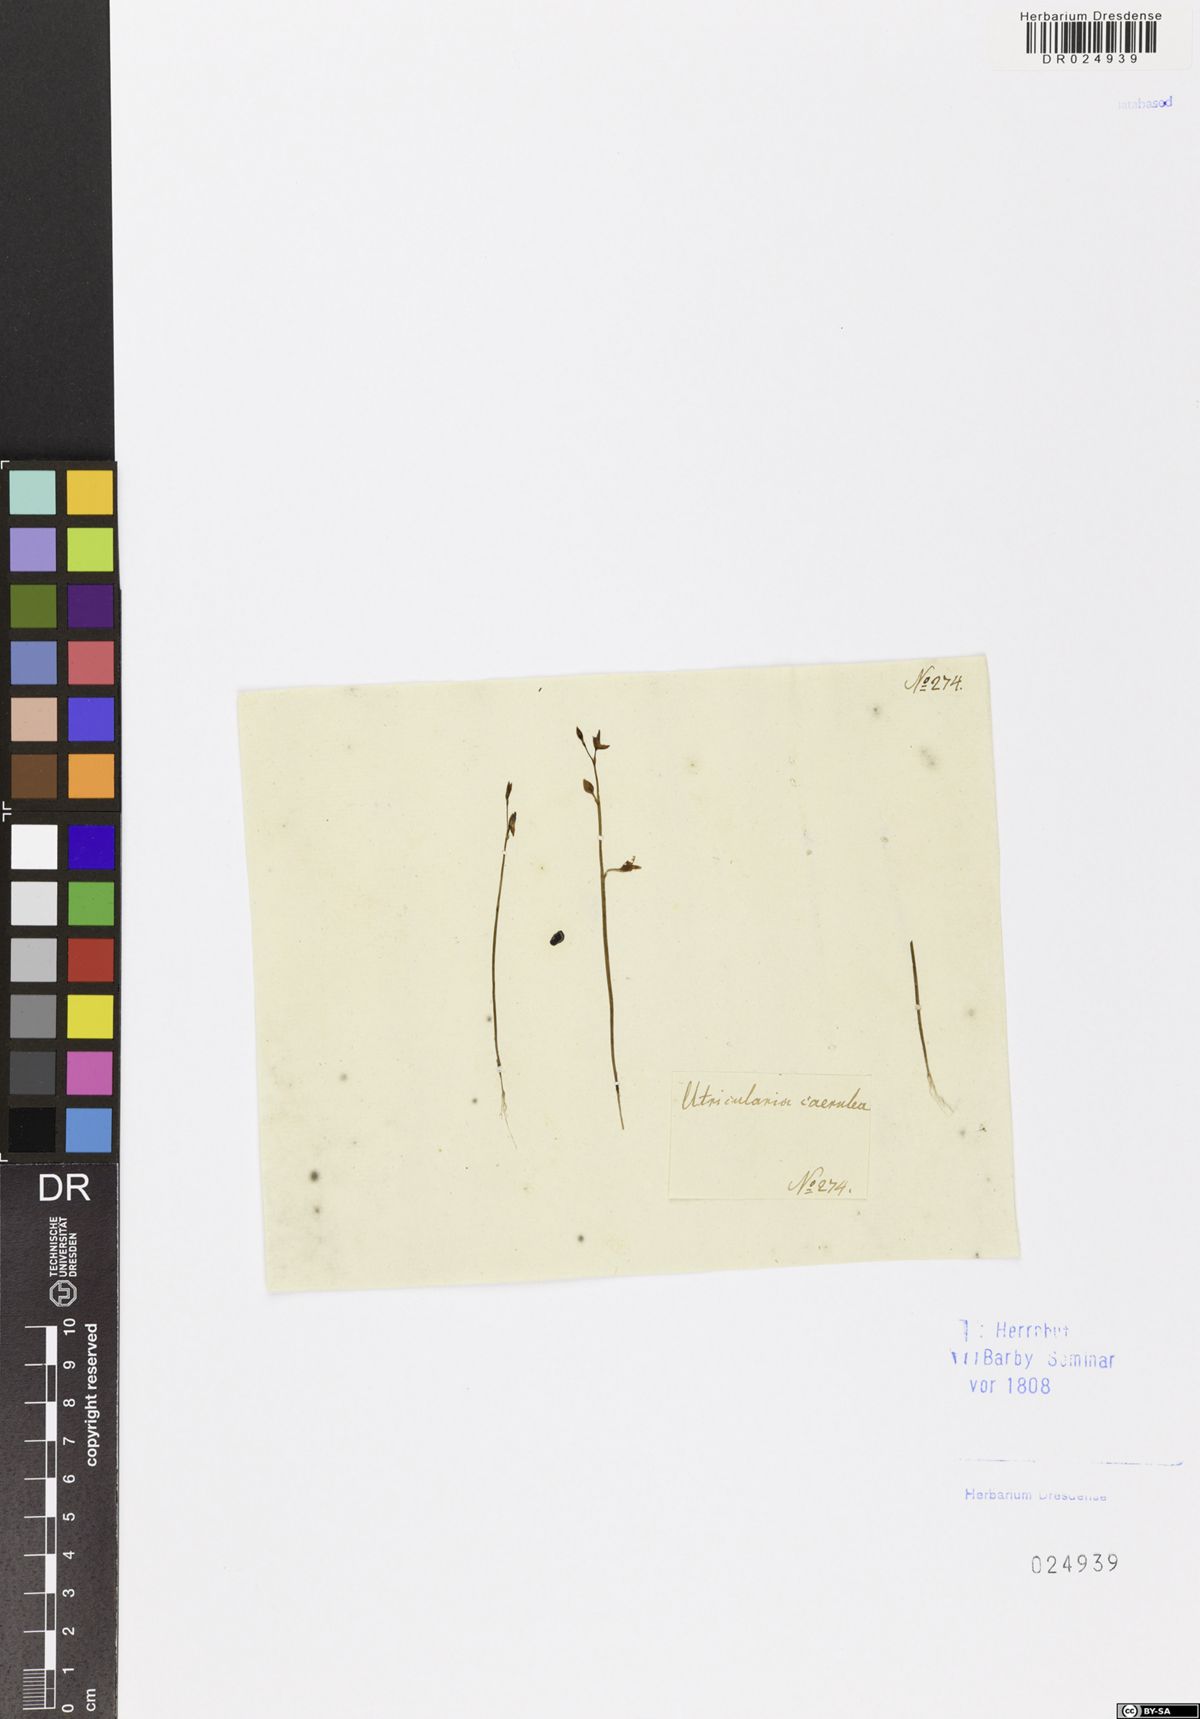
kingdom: Plantae
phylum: Tracheophyta
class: Magnoliopsida
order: Lamiales
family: Lentibulariaceae
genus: Utricularia
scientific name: Utricularia caerulea
